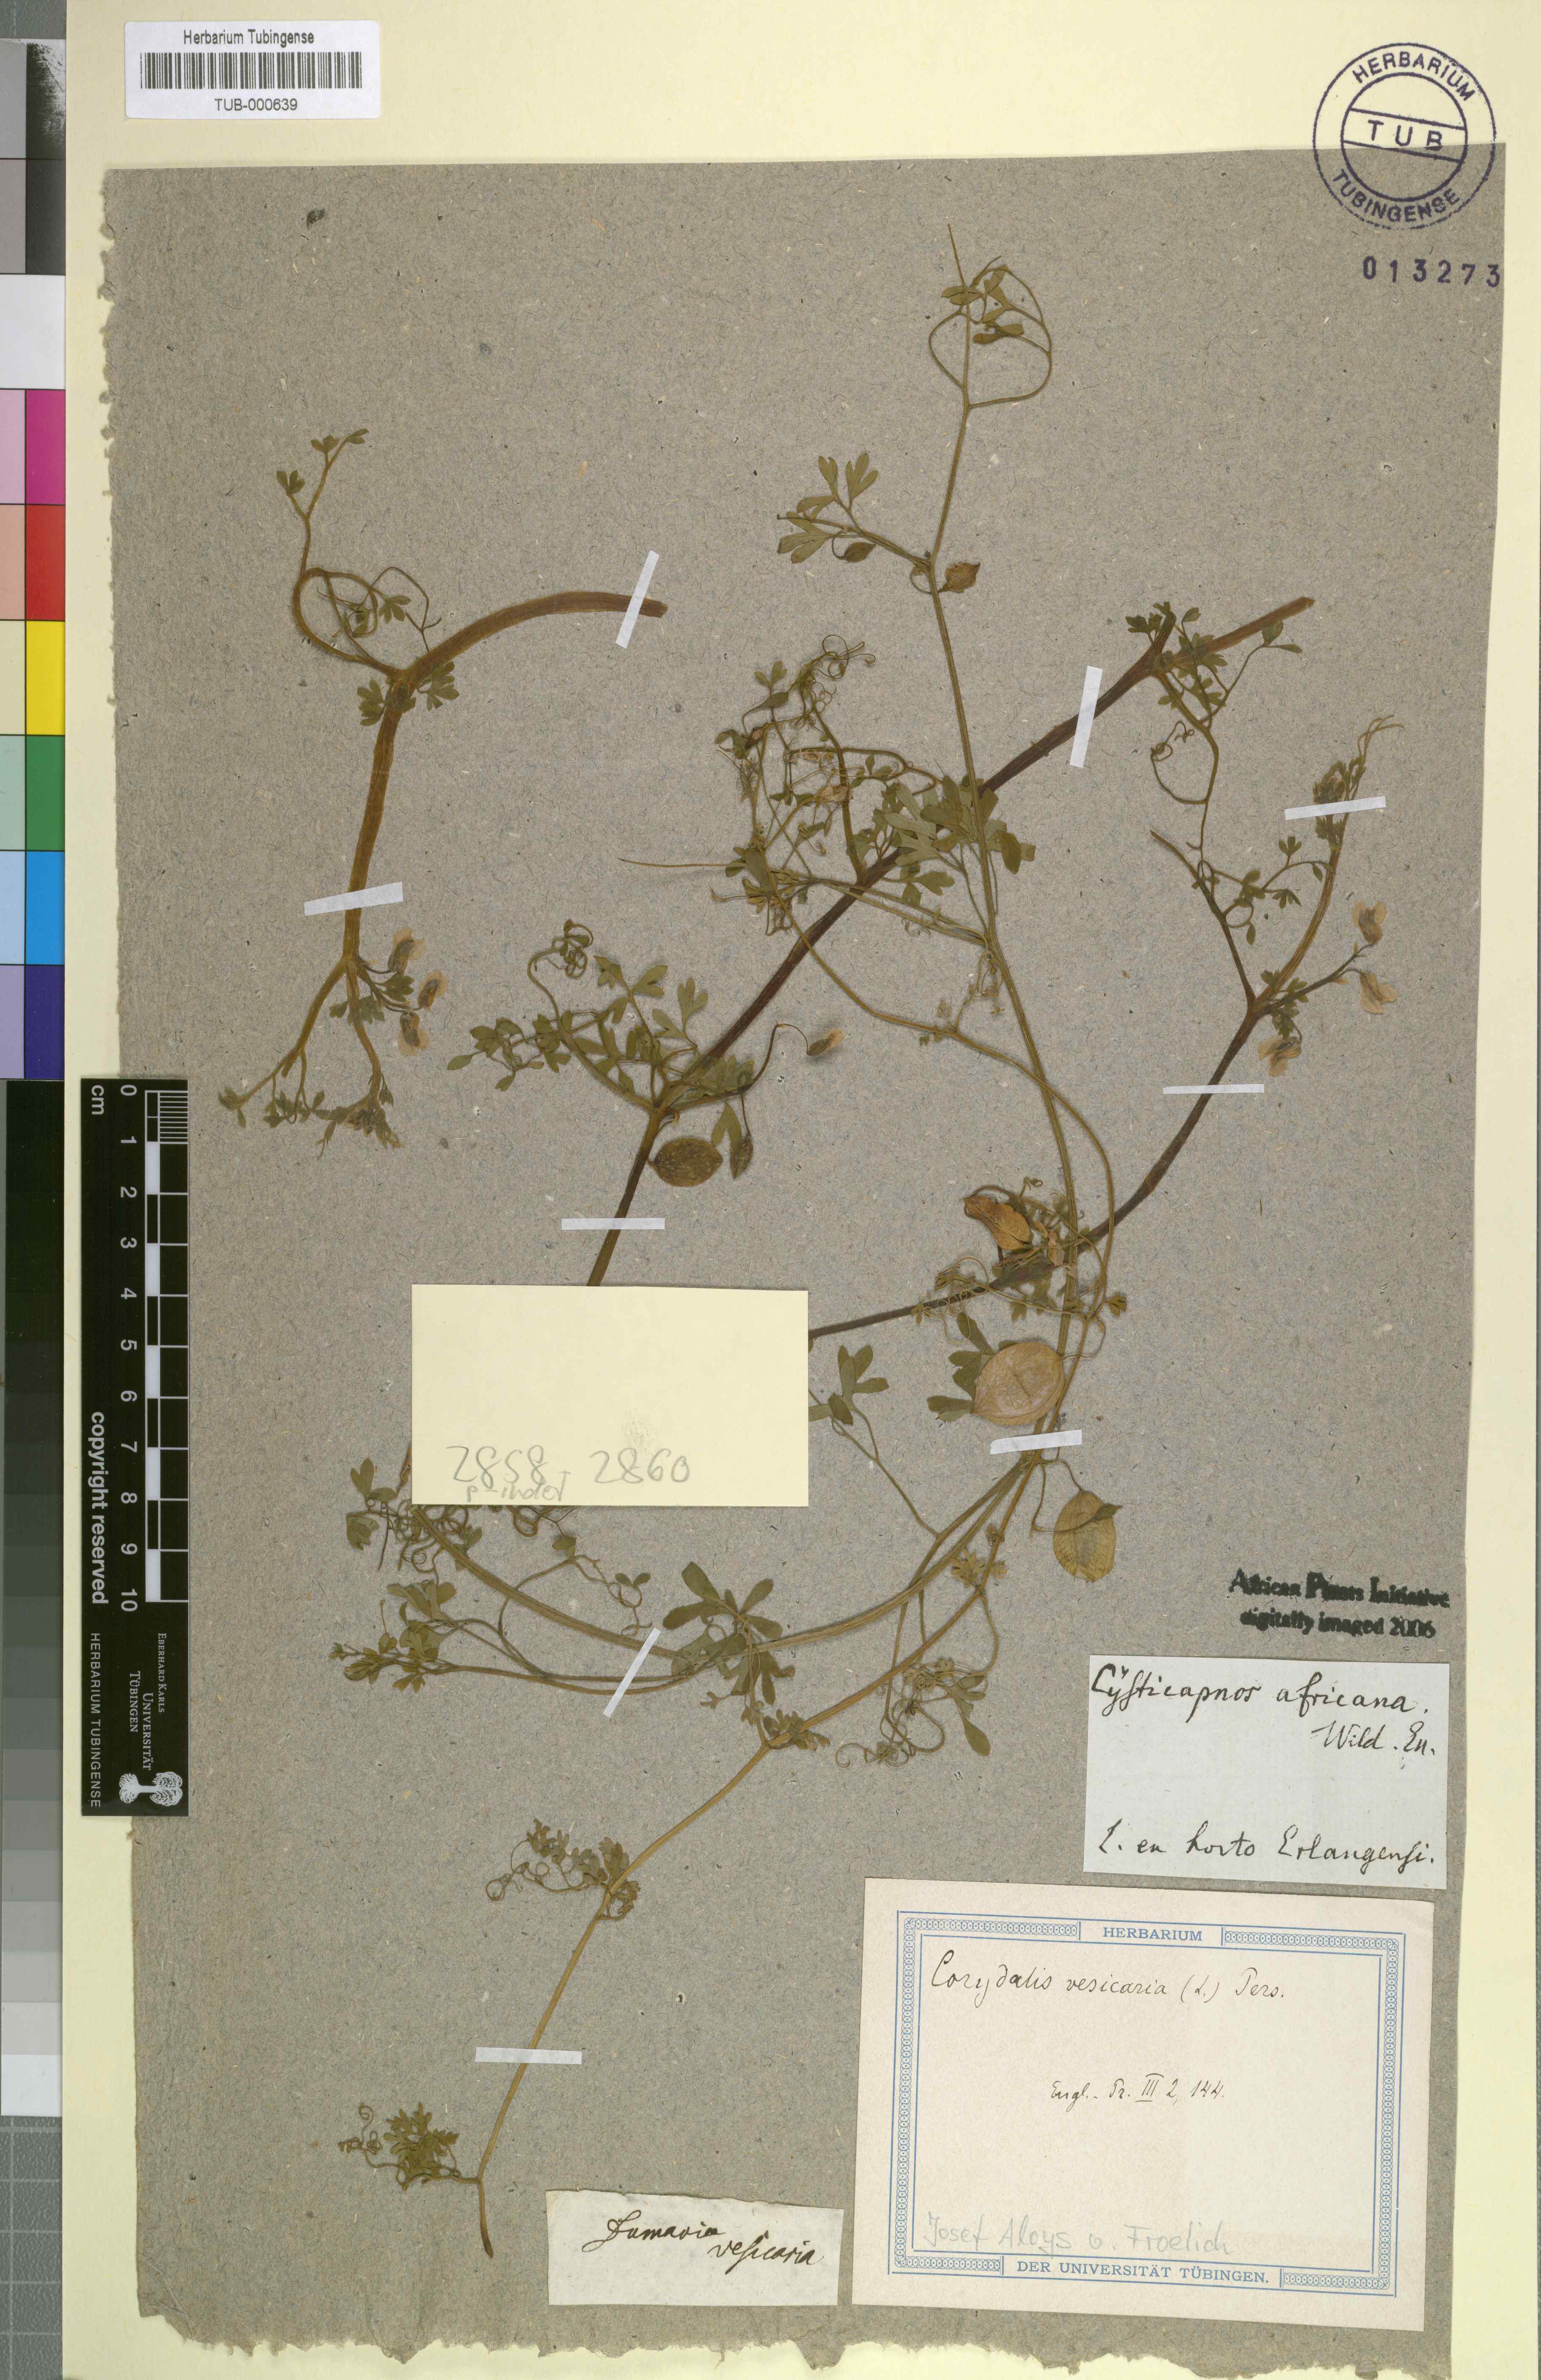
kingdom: Plantae
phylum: Tracheophyta
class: Magnoliopsida
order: Ranunculales
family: Papaveraceae
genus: Cysticapnos
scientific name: Cysticapnos vesicaria
